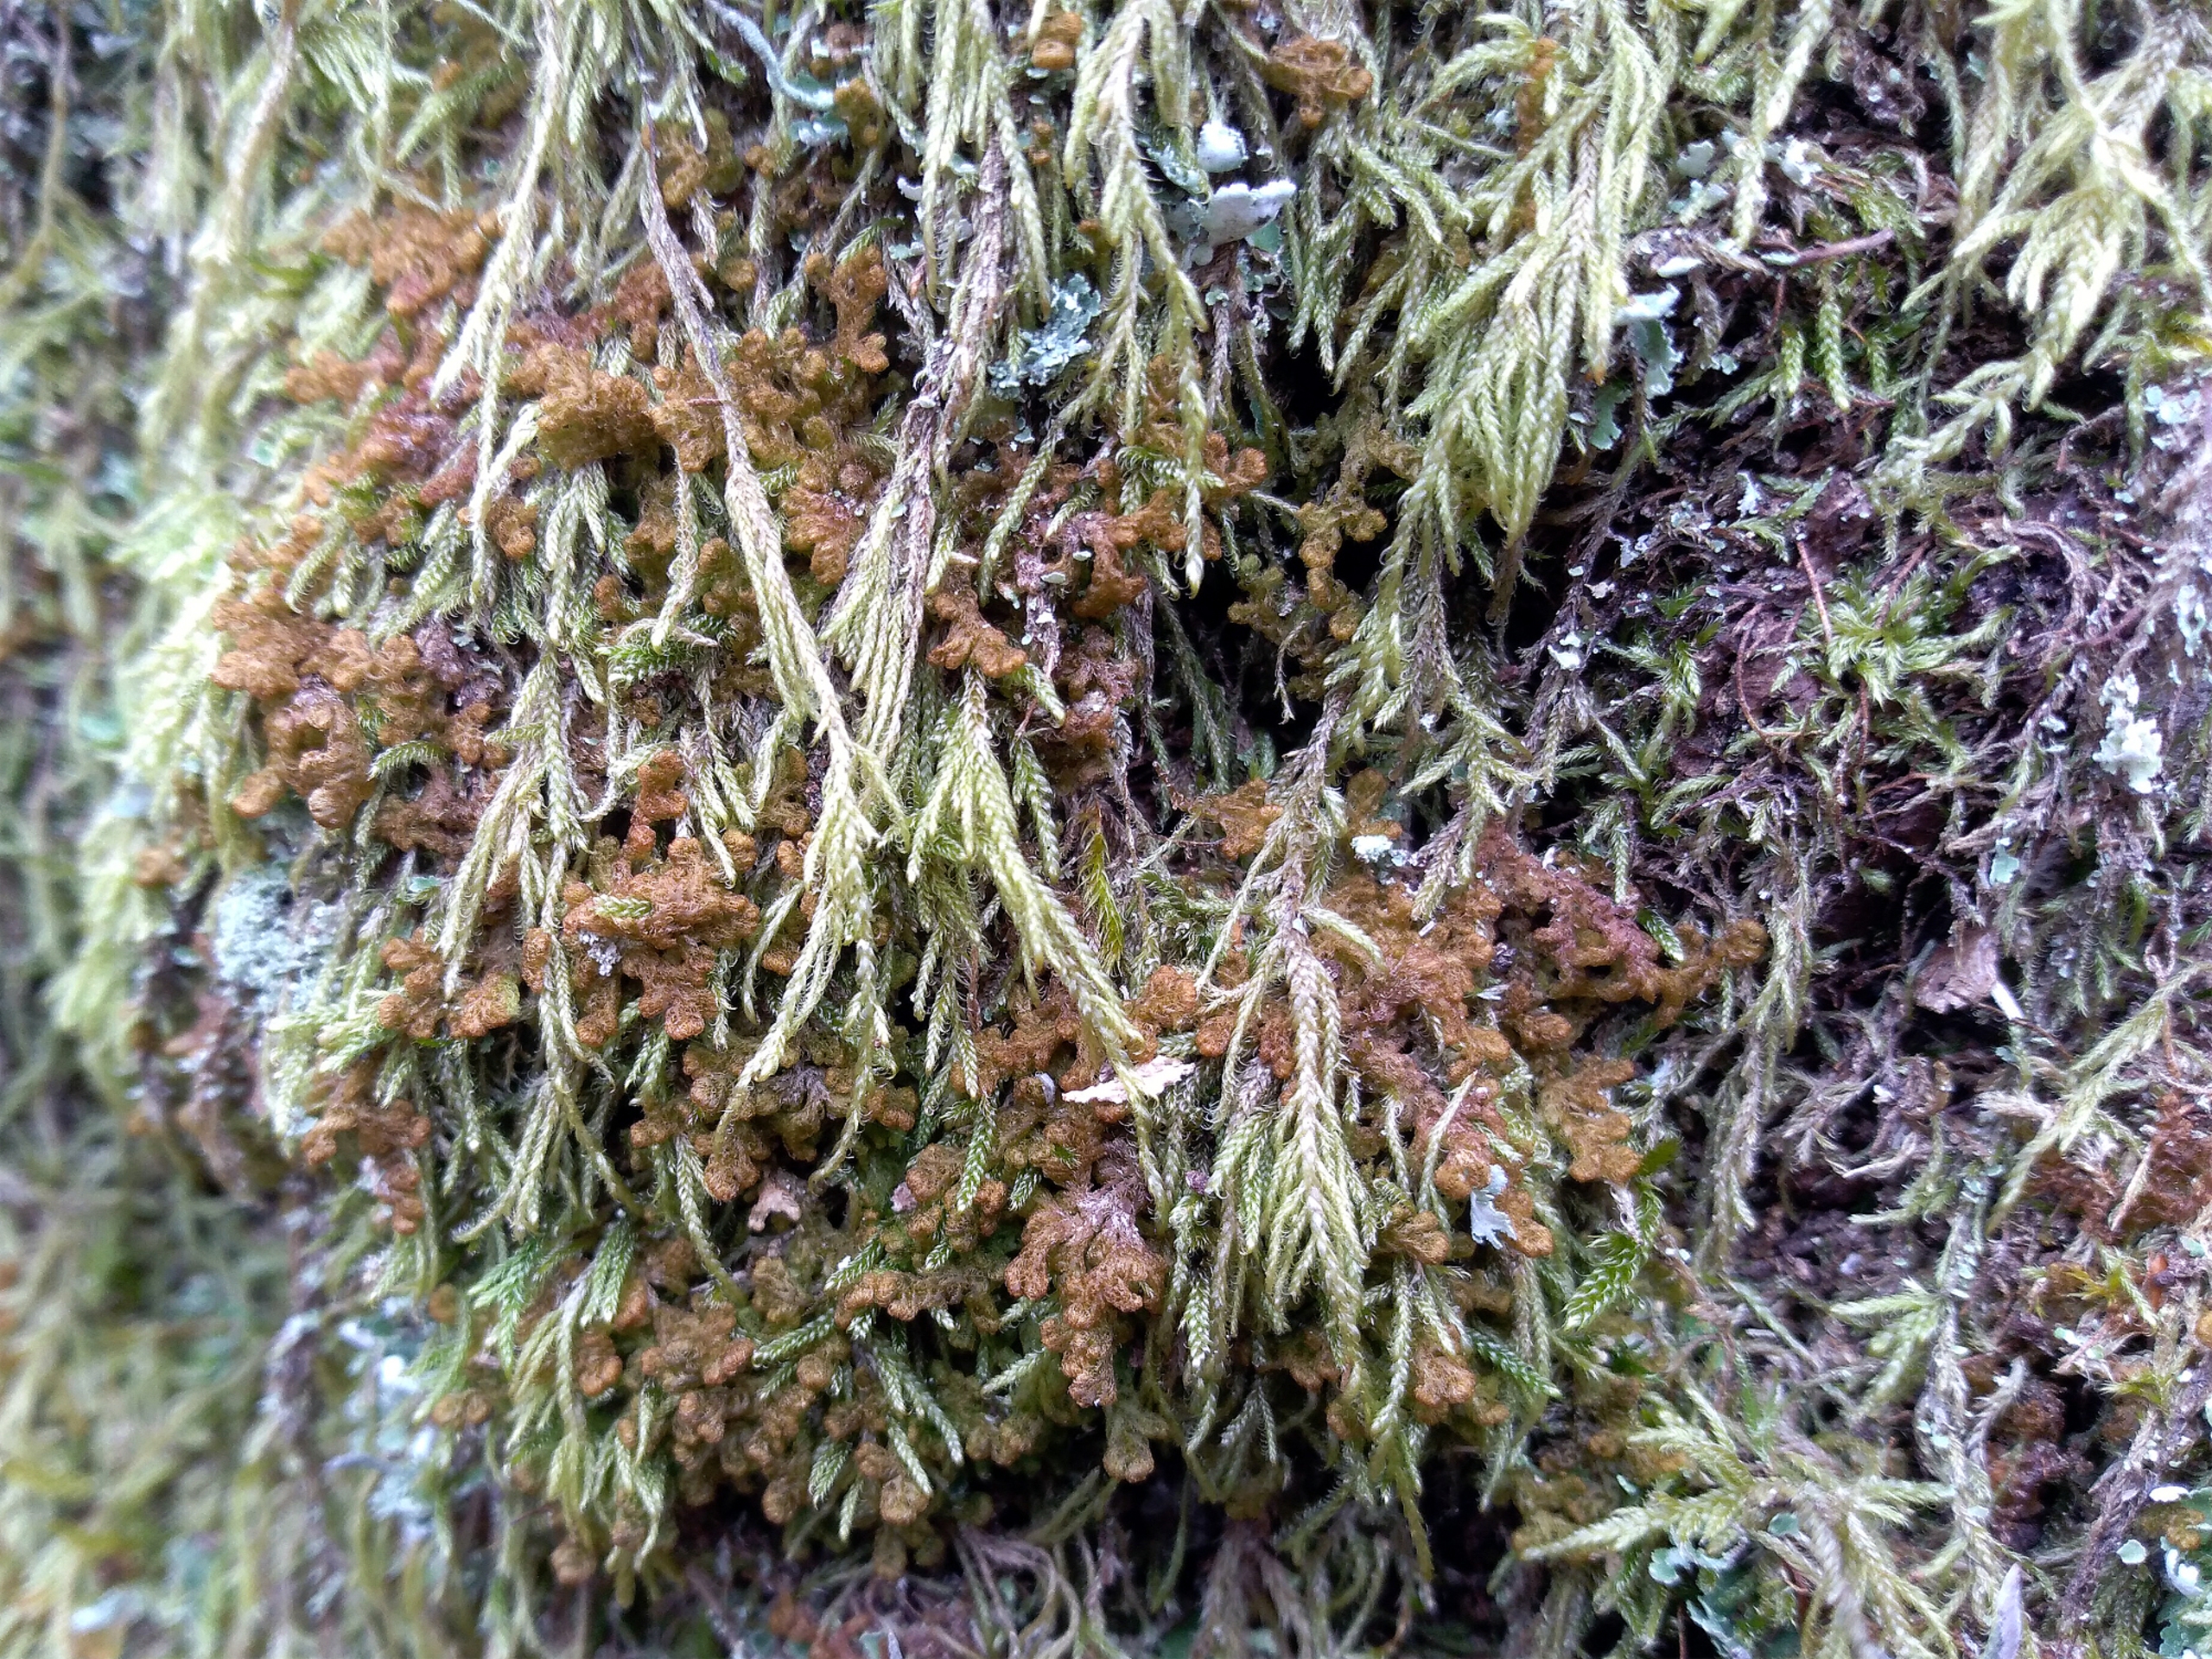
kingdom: Plantae
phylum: Marchantiophyta
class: Jungermanniopsida
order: Ptilidiales
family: Ptilidiaceae
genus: Ptilidium
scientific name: Ptilidium pulcherrimum
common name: Stub-frynsemos
